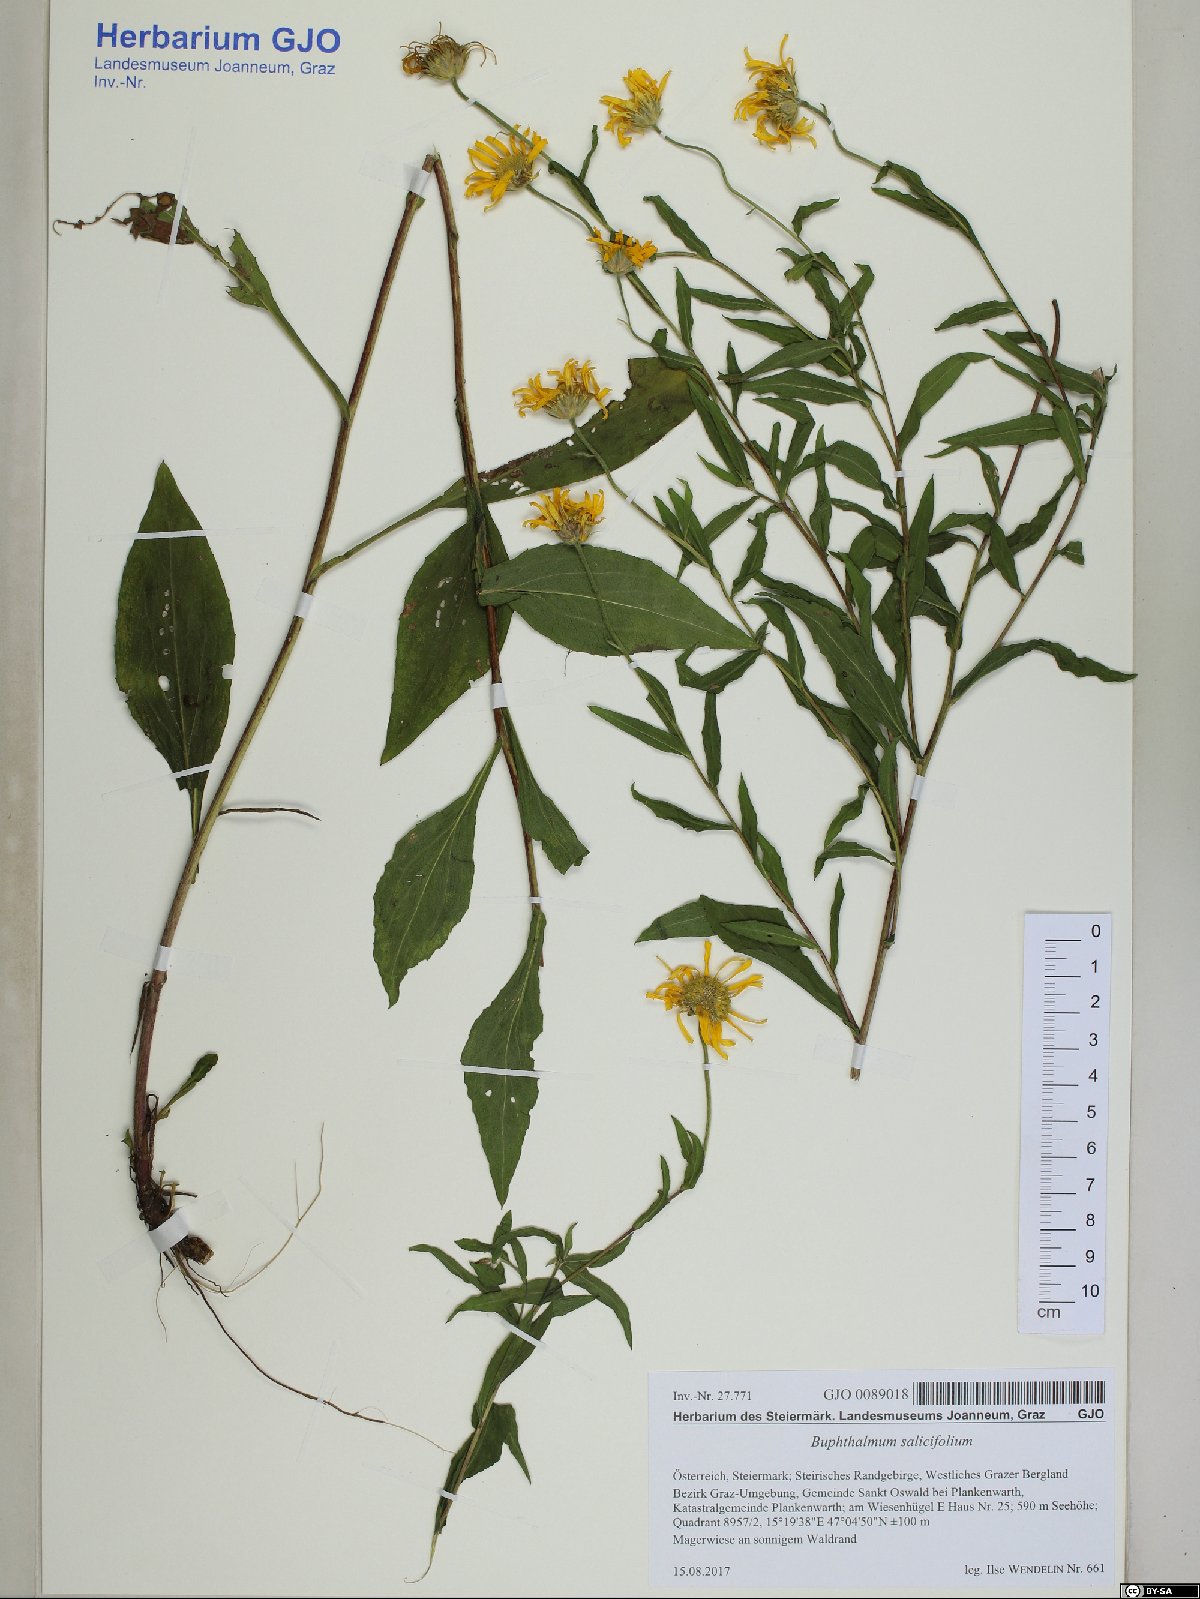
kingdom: Plantae
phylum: Tracheophyta
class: Magnoliopsida
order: Asterales
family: Asteraceae
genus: Buphthalmum
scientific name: Buphthalmum salicifolium
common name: Willow-leaved yellow-oxeye
